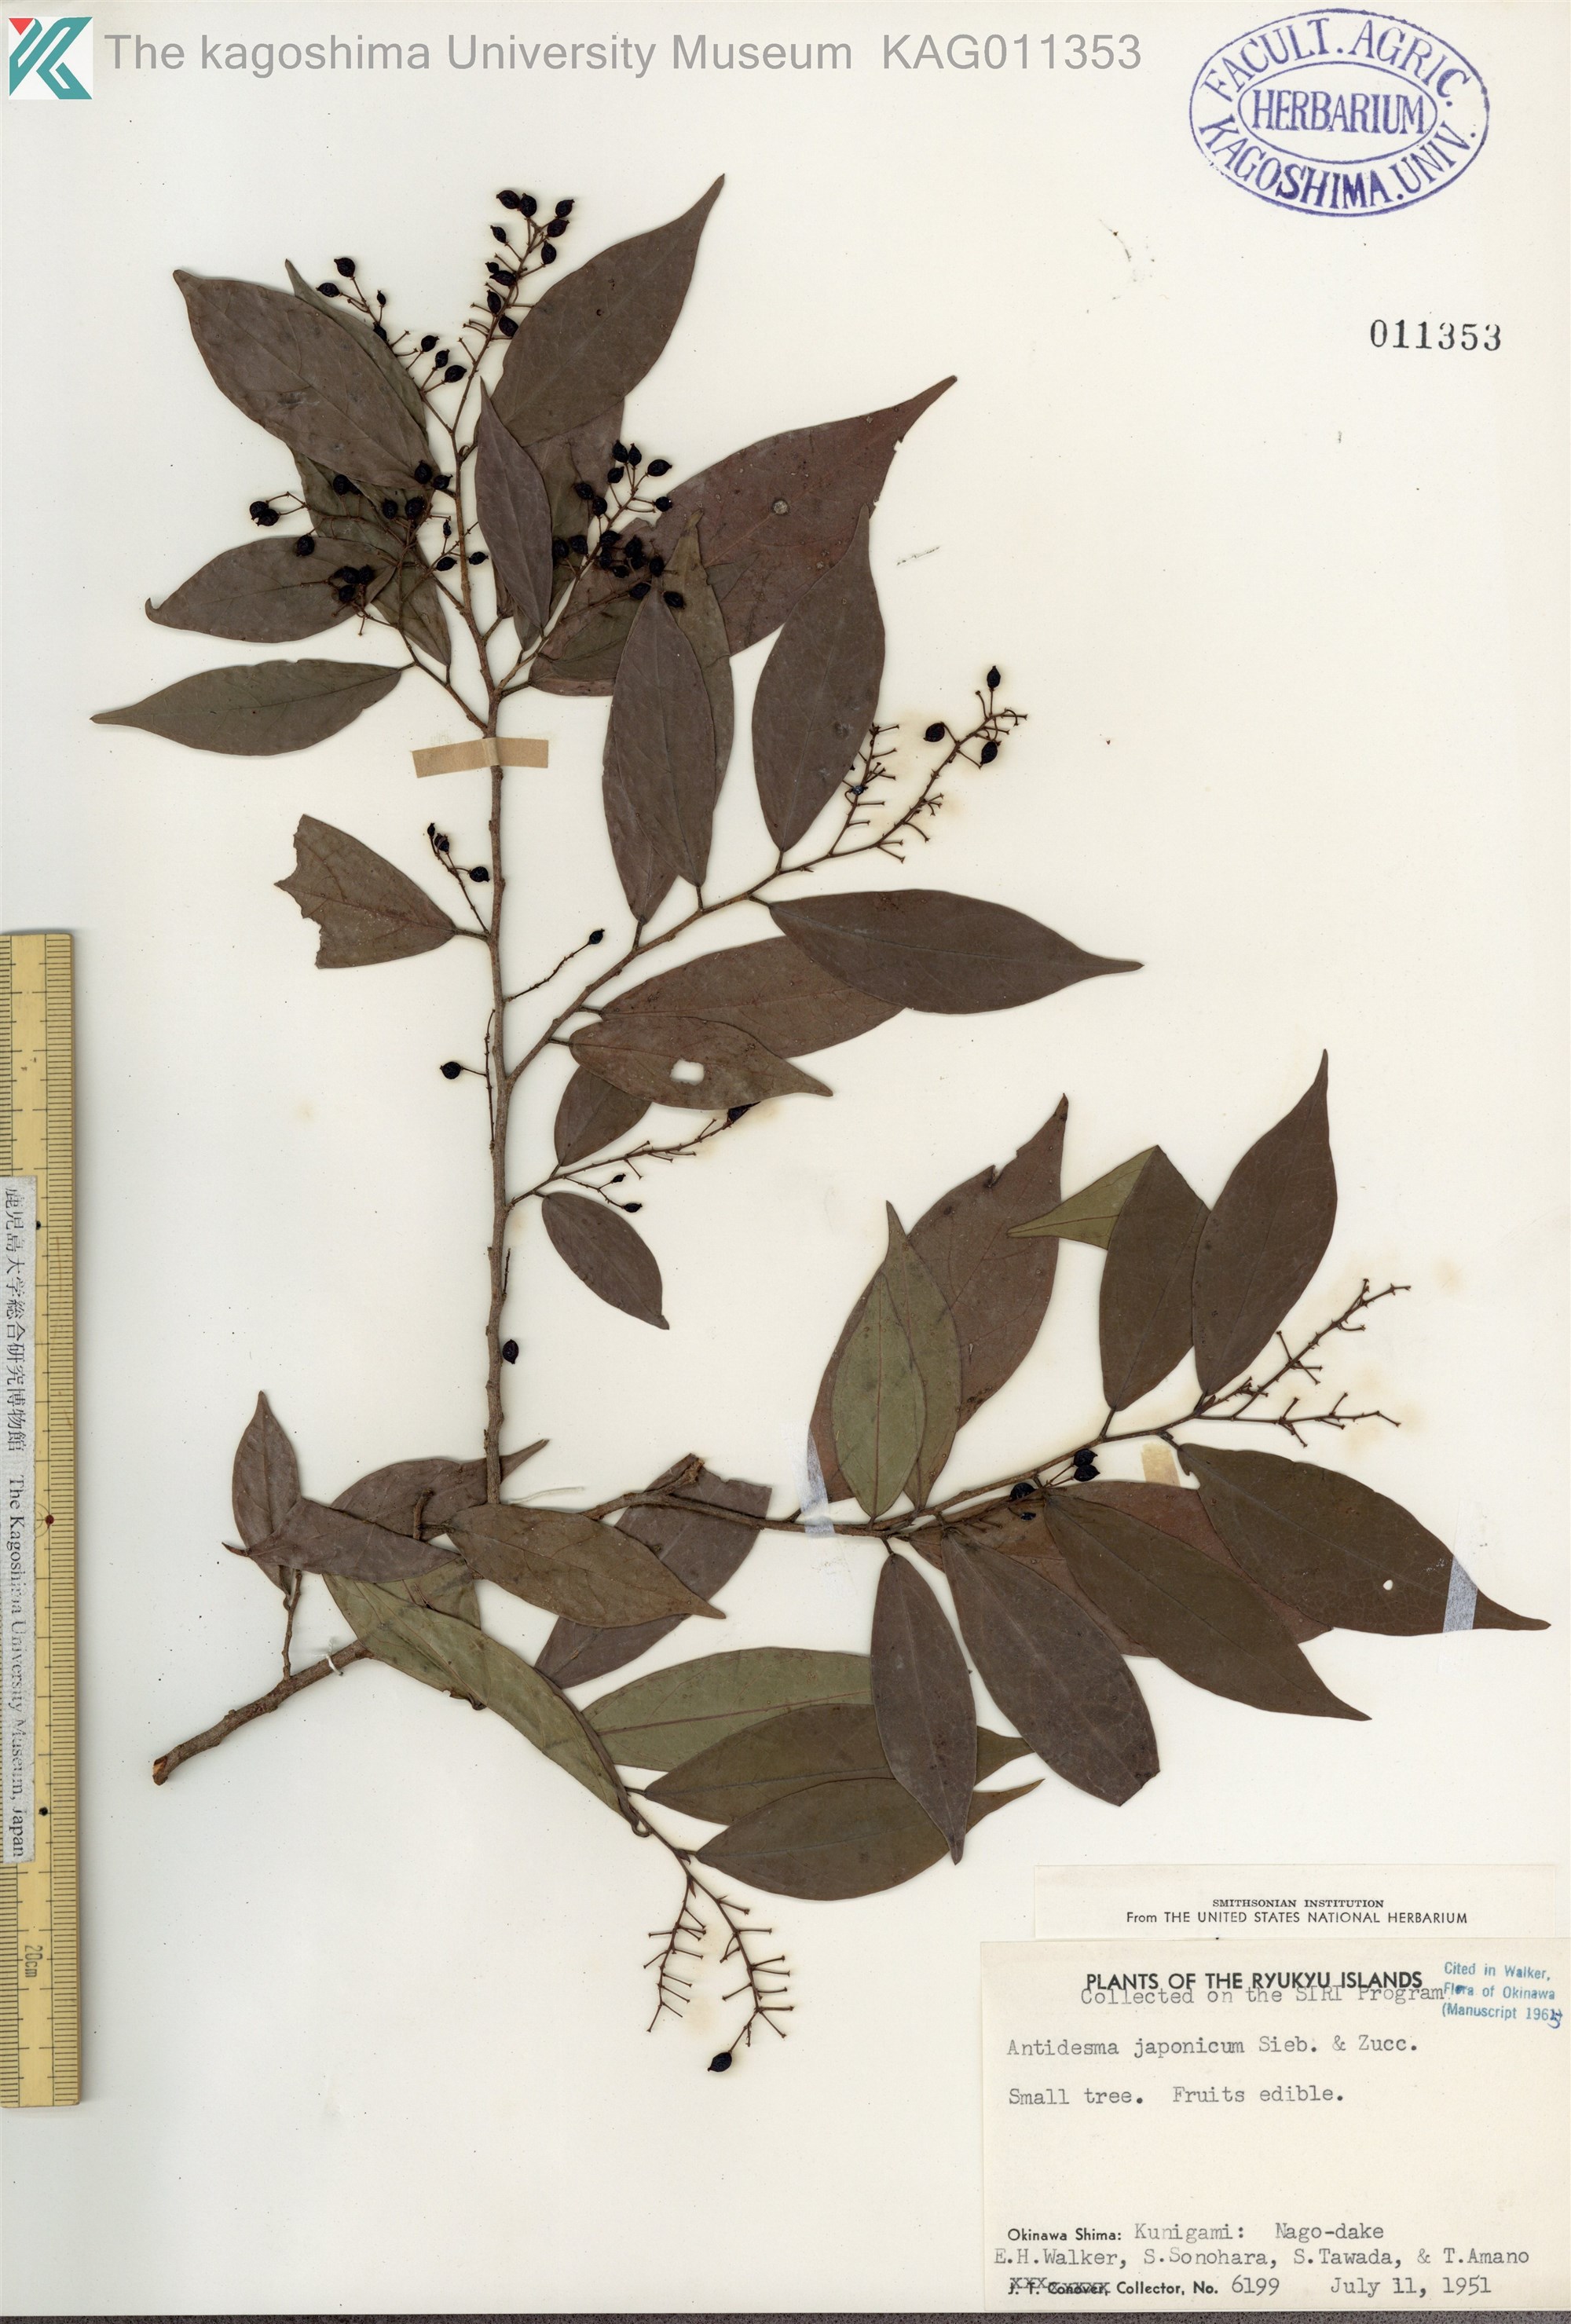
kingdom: Plantae
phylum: Tracheophyta
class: Magnoliopsida
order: Malpighiales
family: Phyllanthaceae
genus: Antidesma
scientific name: Antidesma japonicum
